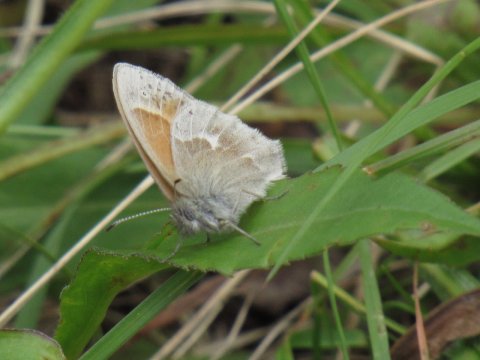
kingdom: Animalia
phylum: Arthropoda
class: Insecta
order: Lepidoptera
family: Nymphalidae
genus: Coenonympha
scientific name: Coenonympha tullia
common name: Large Heath
